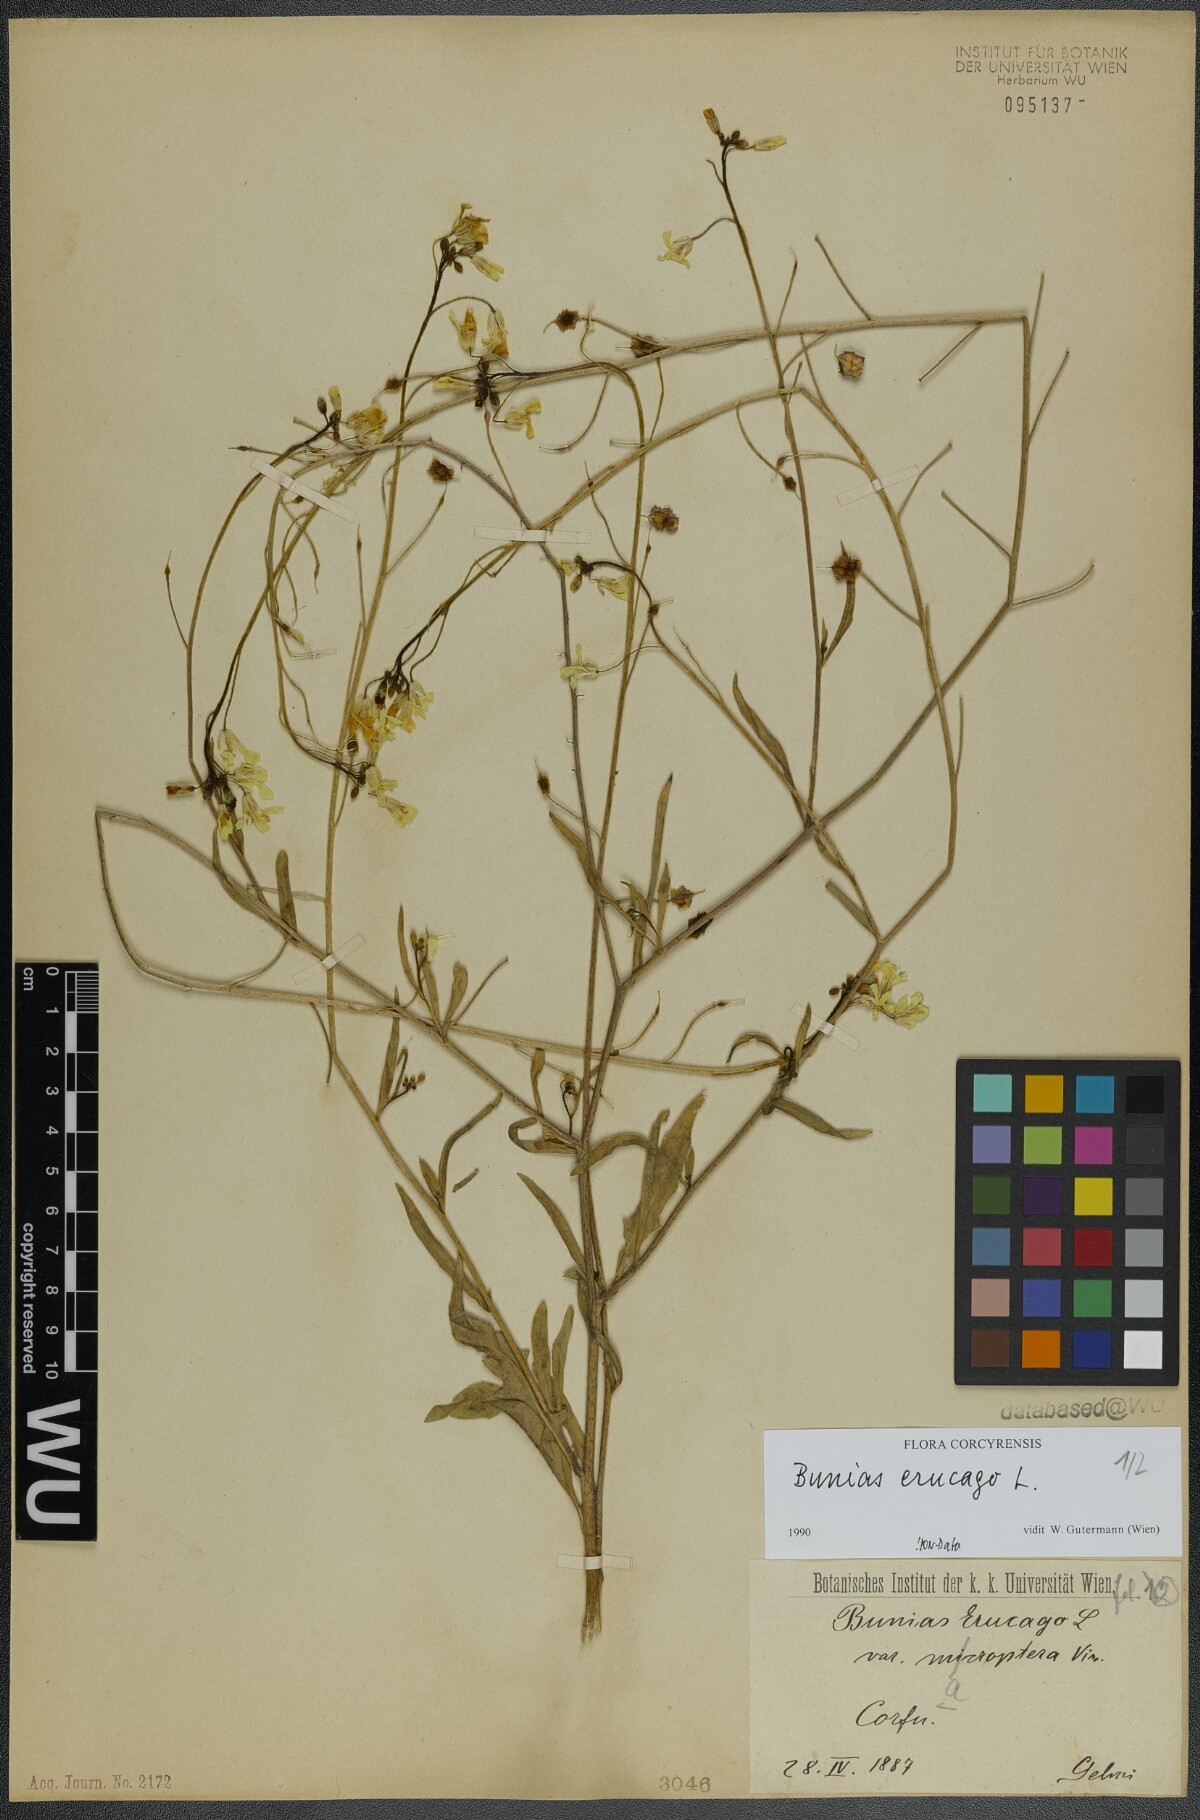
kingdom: Plantae
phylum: Tracheophyta
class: Magnoliopsida
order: Brassicales
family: Brassicaceae
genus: Bunias
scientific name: Bunias erucago
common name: Southern warty-cabbage
